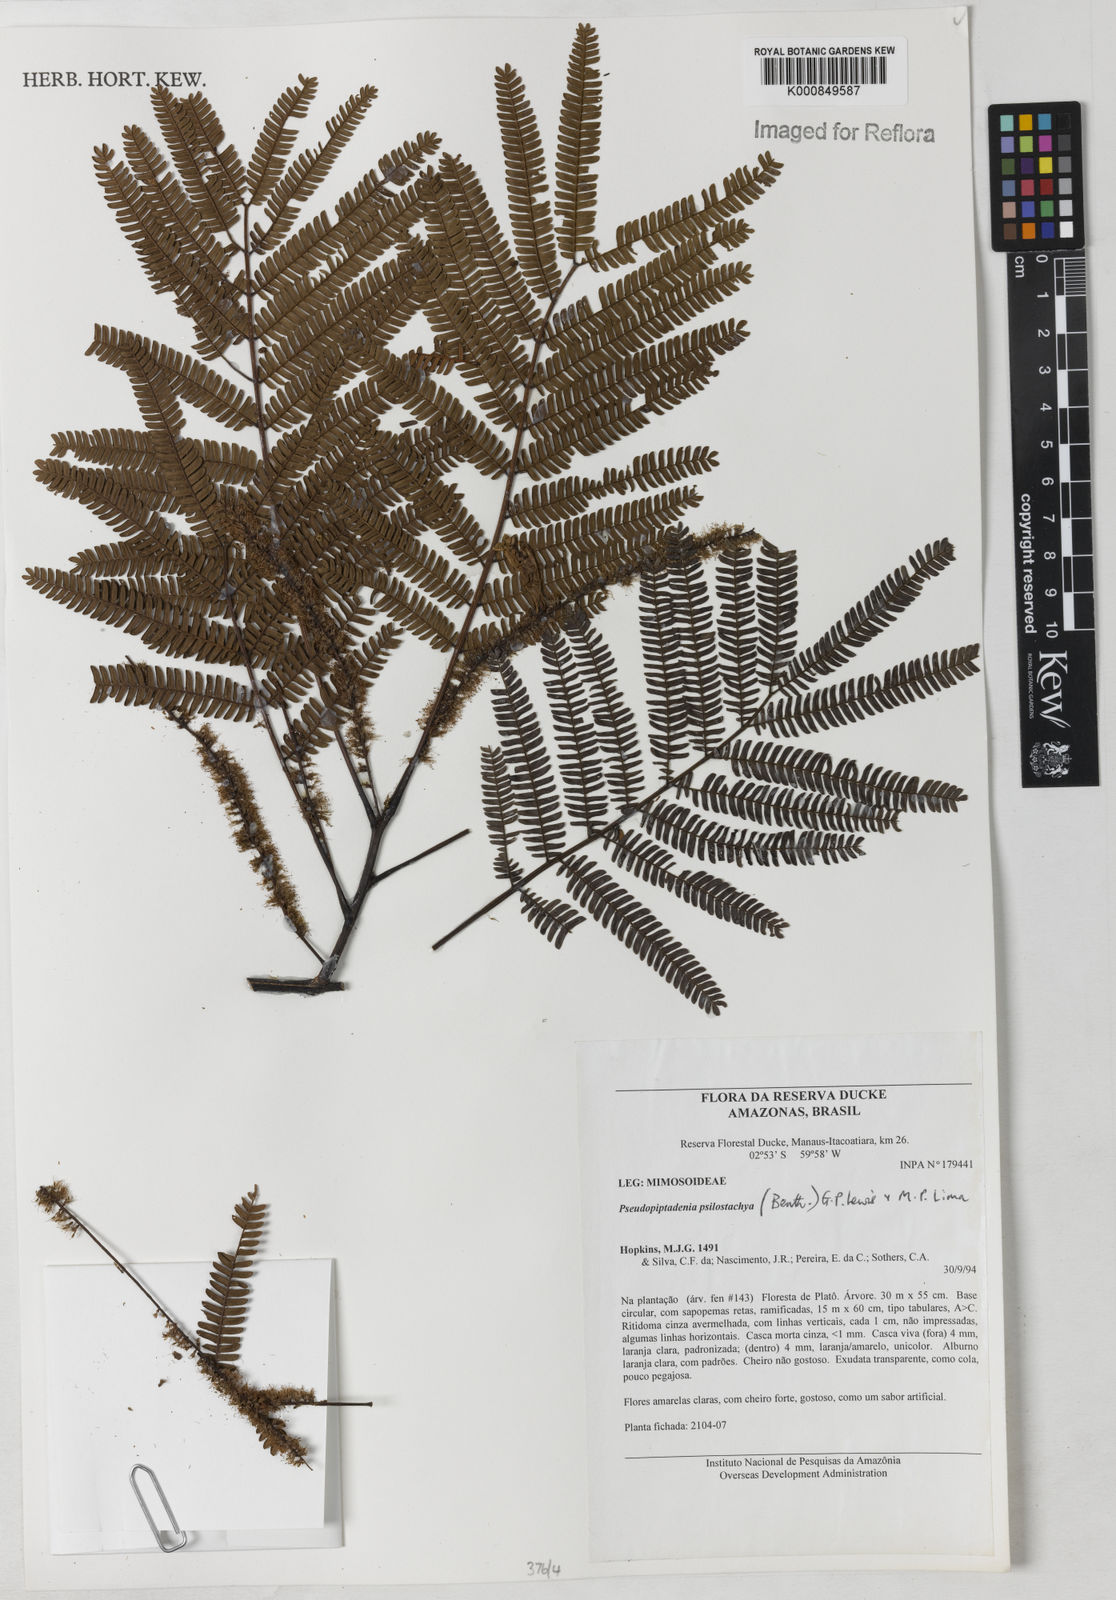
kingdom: Plantae
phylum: Tracheophyta
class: Magnoliopsida
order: Fabales
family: Fabaceae
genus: Pseudopiptadenia
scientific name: Pseudopiptadenia psilostachya
